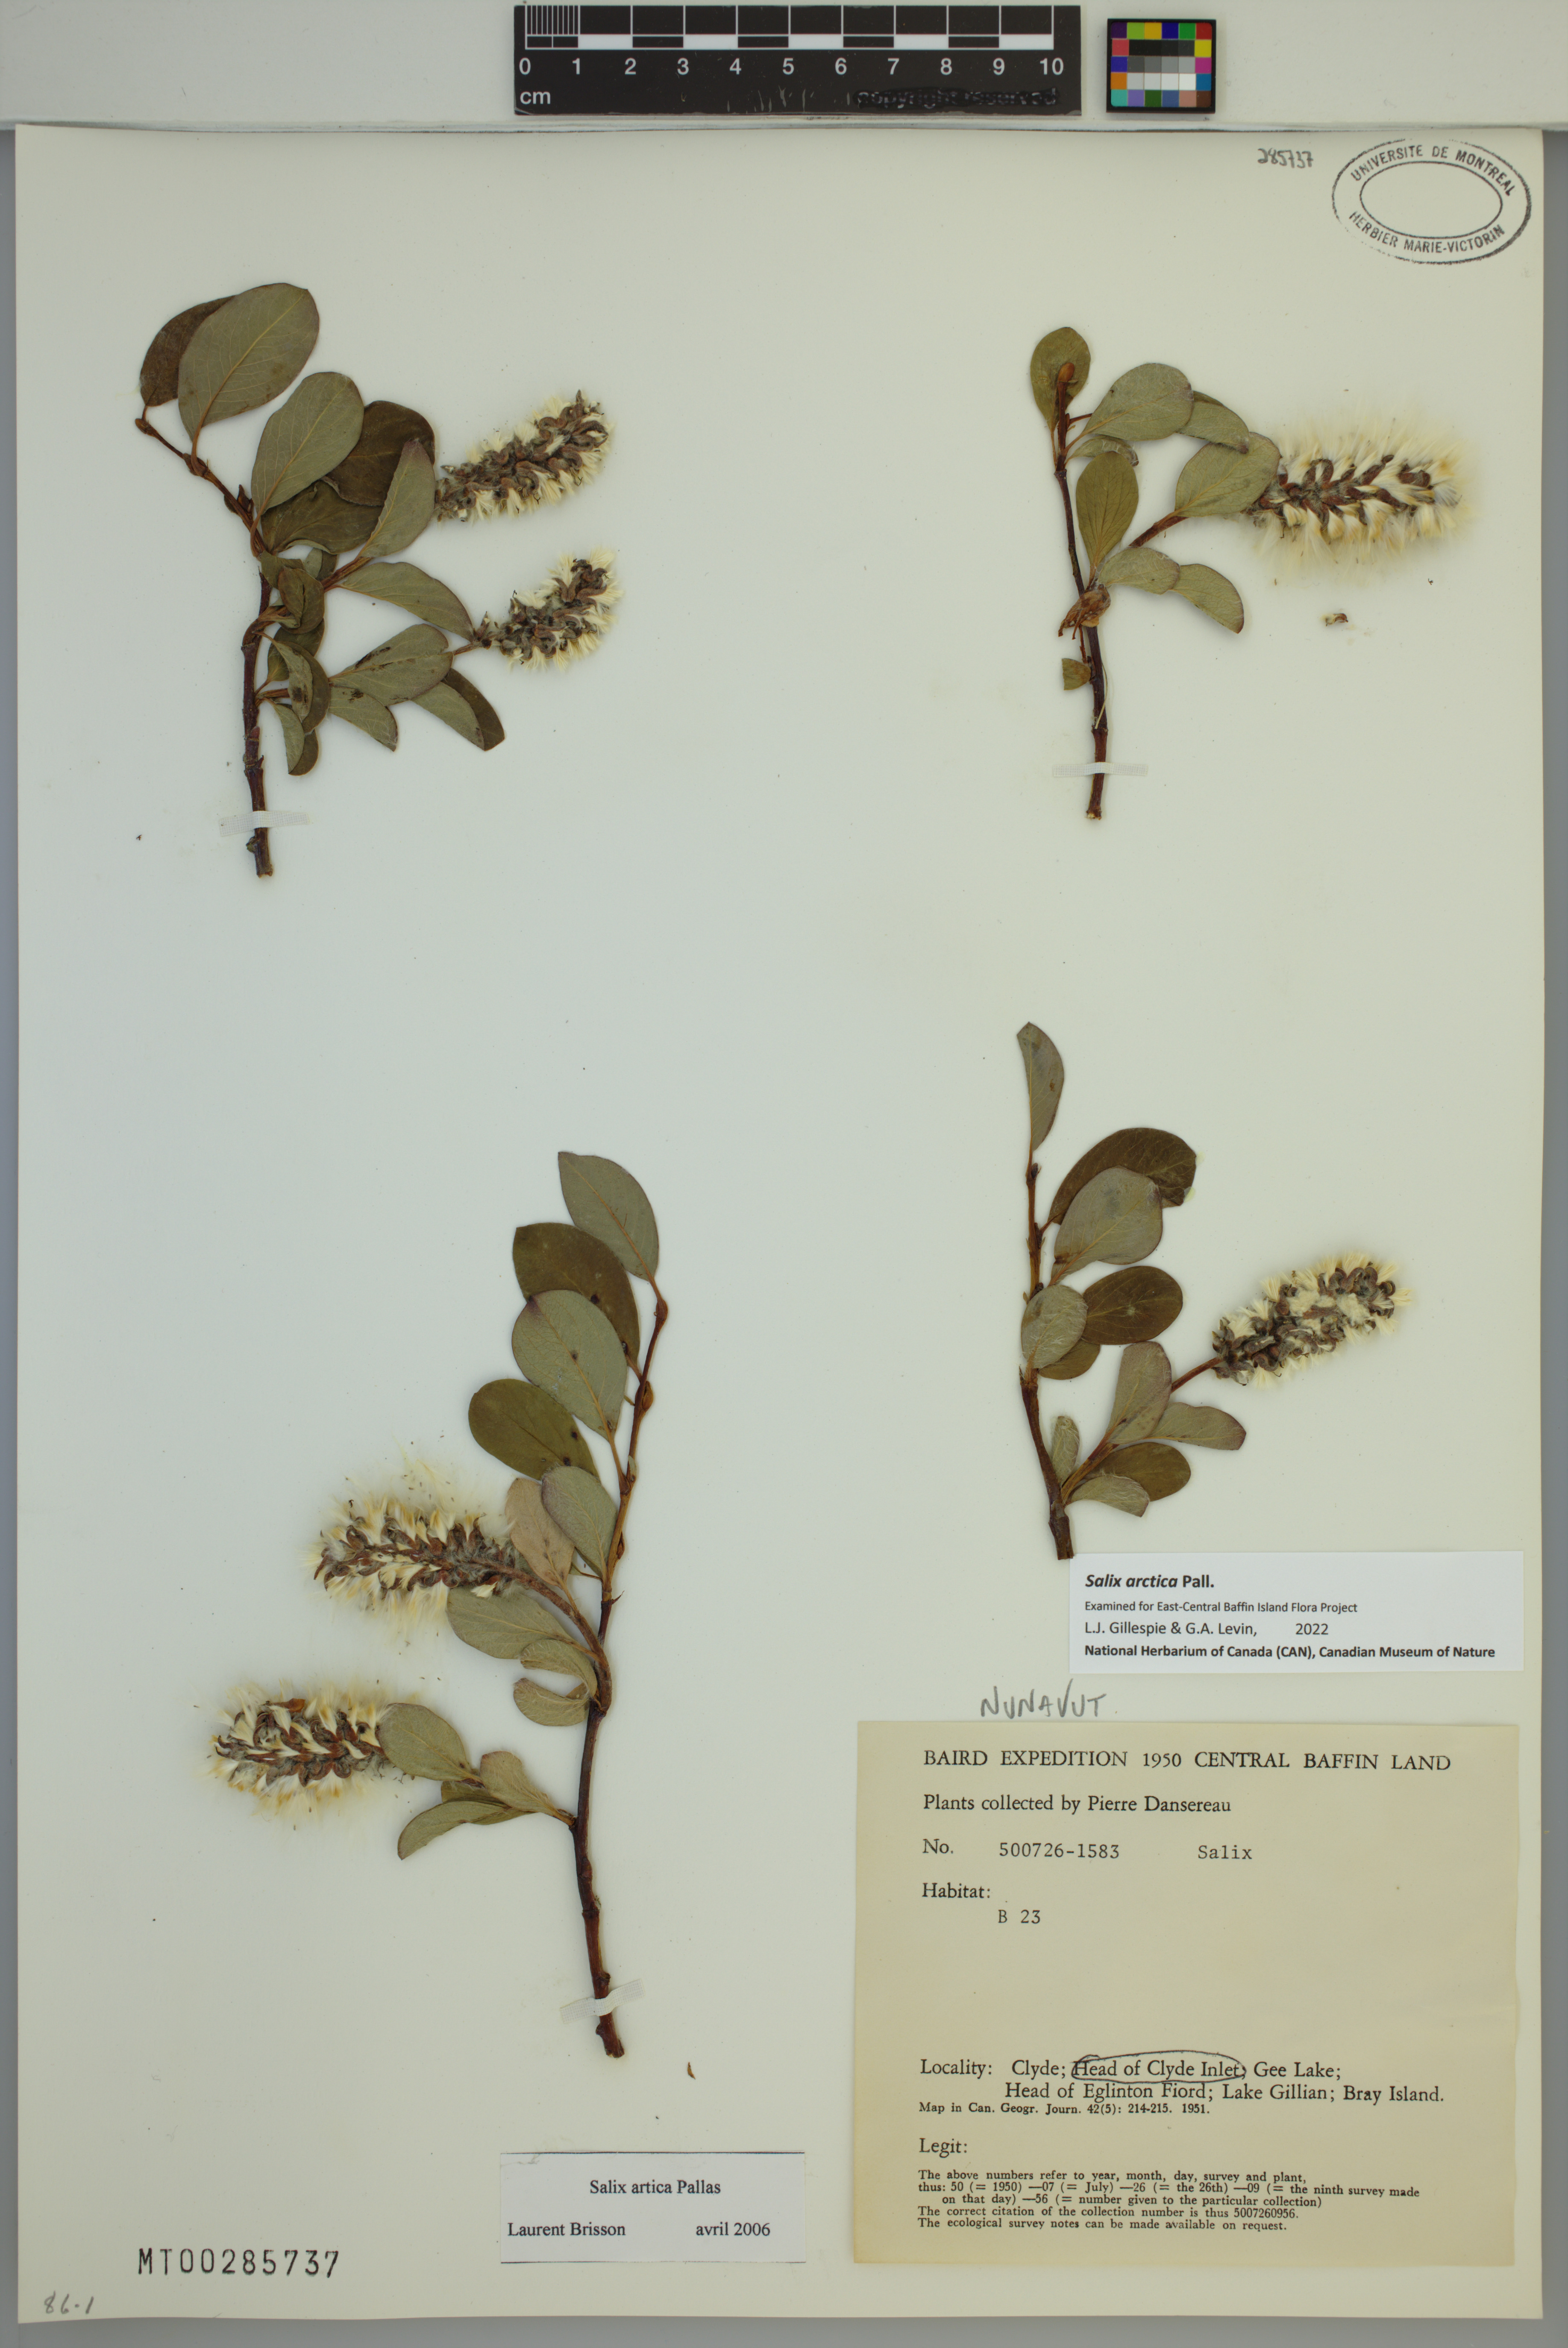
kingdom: Plantae
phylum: Tracheophyta
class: Magnoliopsida
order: Malpighiales
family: Salicaceae
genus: Salix
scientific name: Salix arctica
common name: Arctic willow
